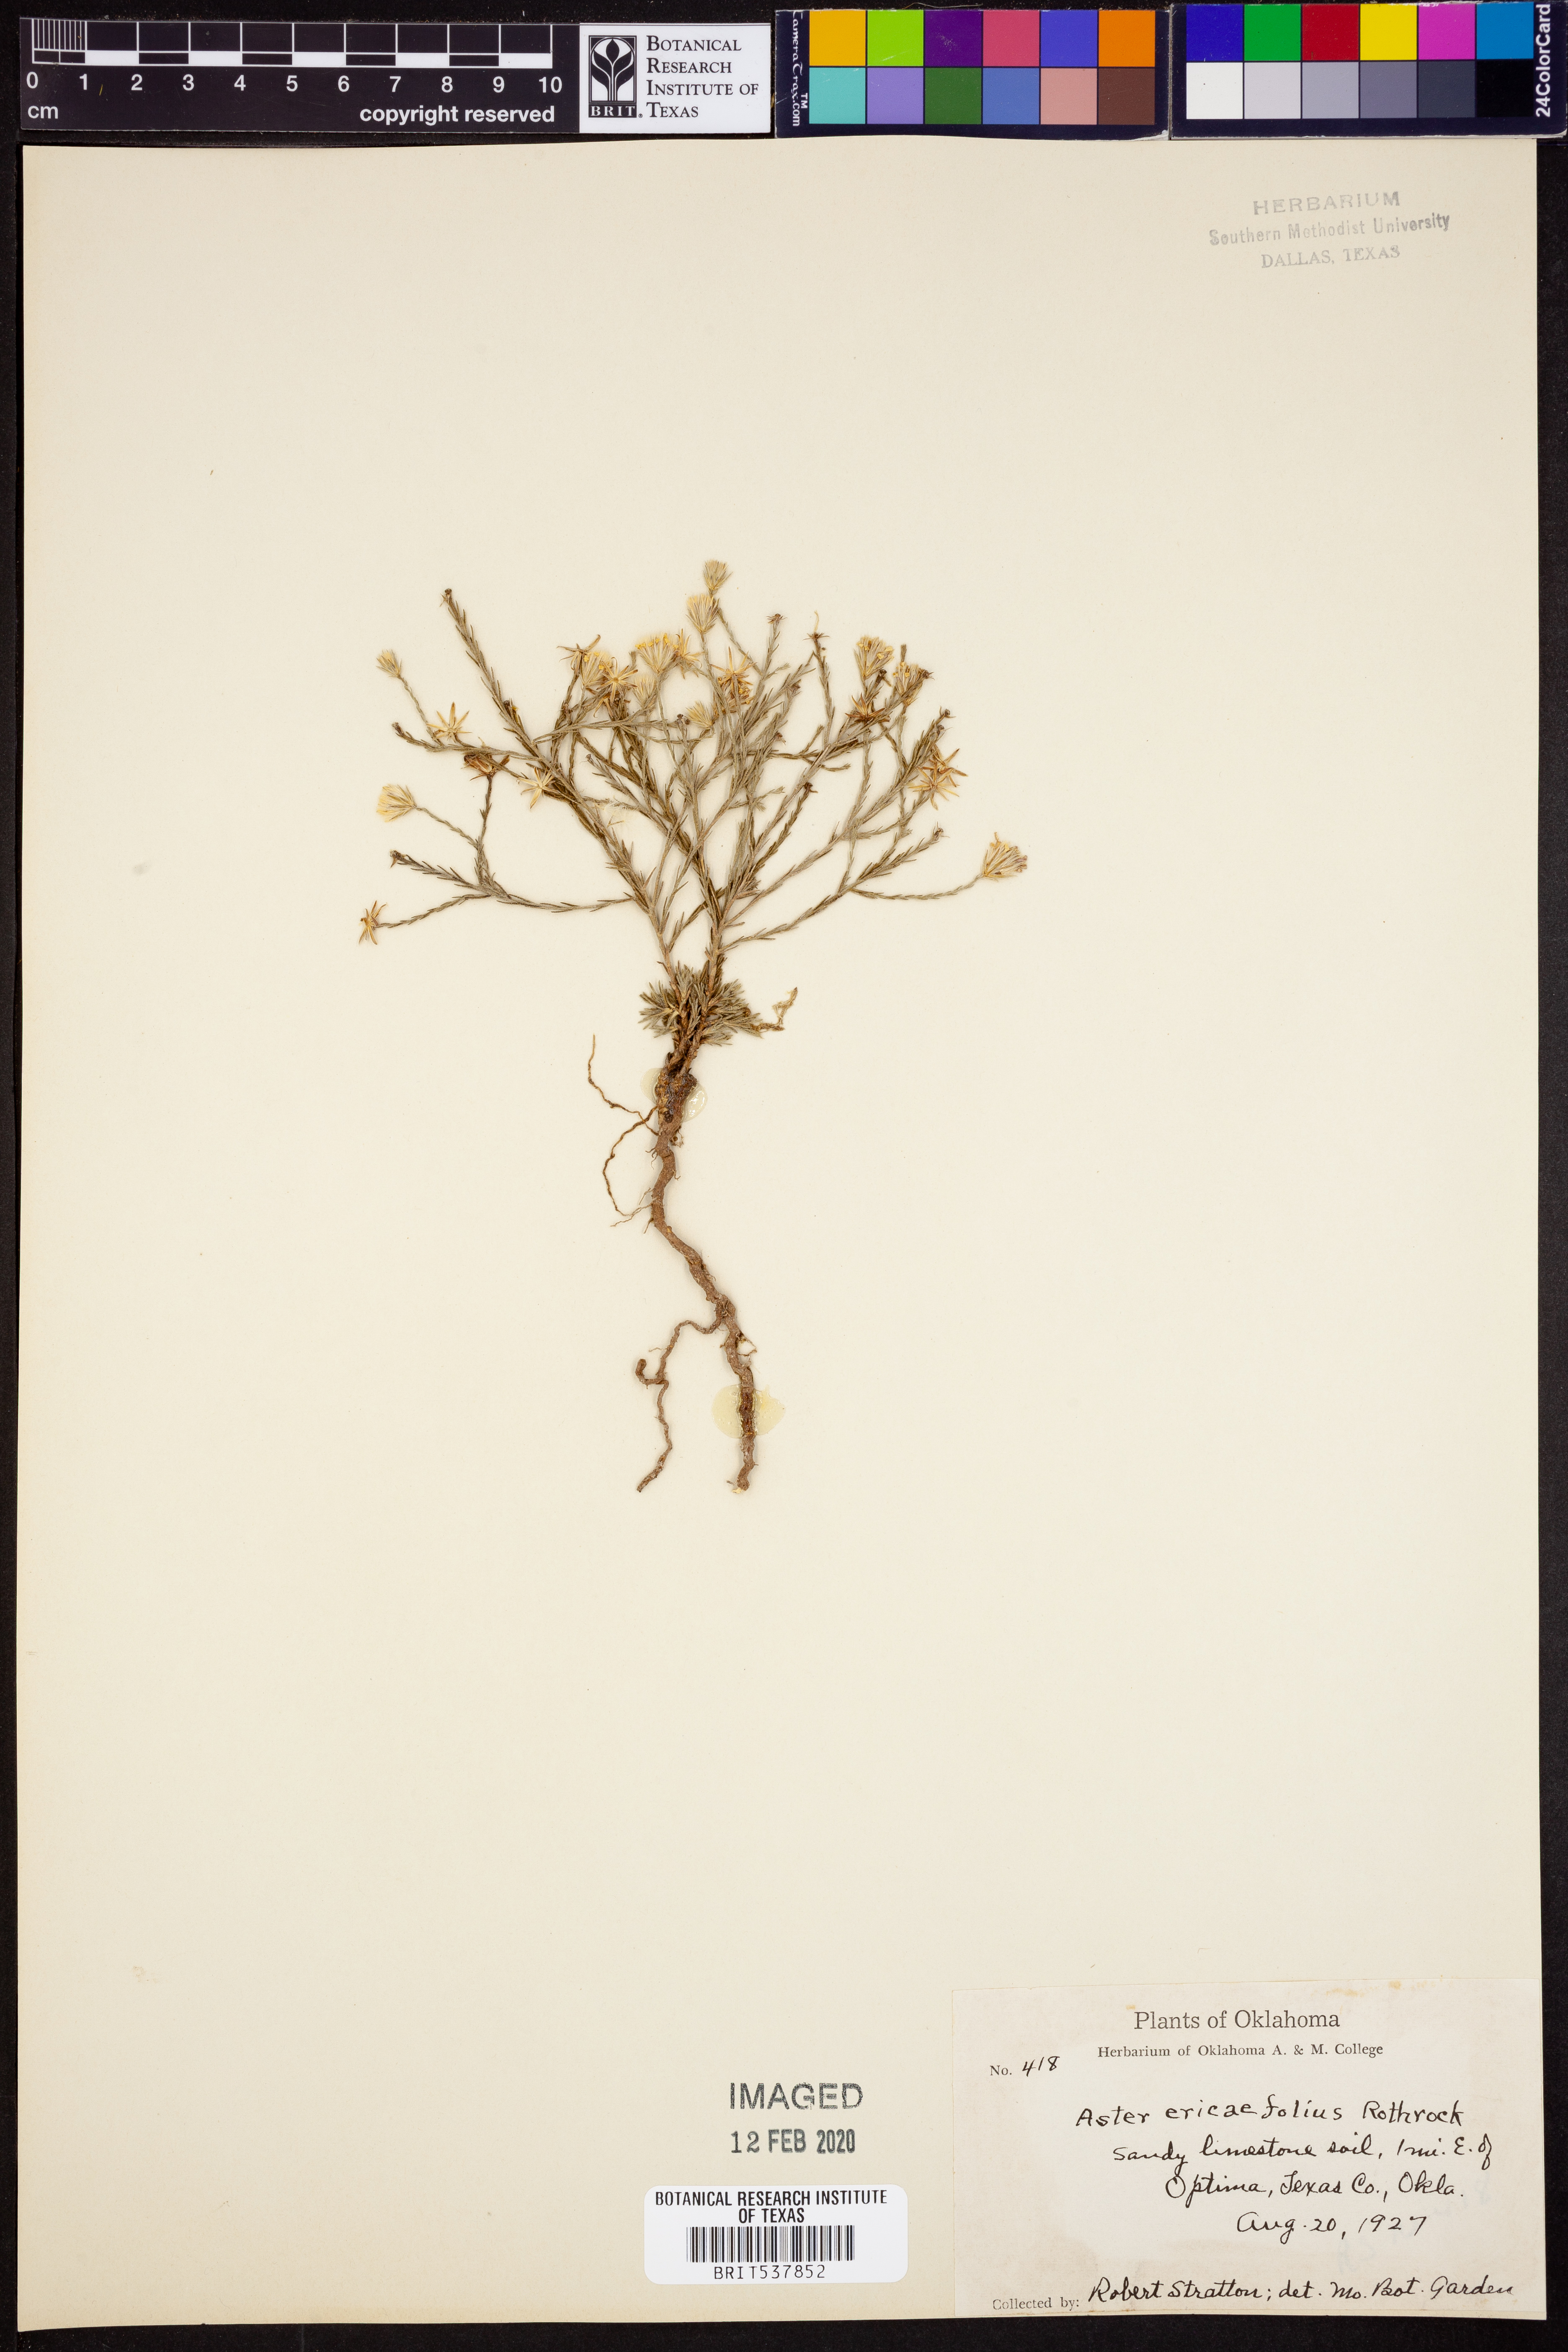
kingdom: Plantae
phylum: Tracheophyta
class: Magnoliopsida
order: Asterales
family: Asteraceae
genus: Chaetopappa
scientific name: Chaetopappa ericoides
